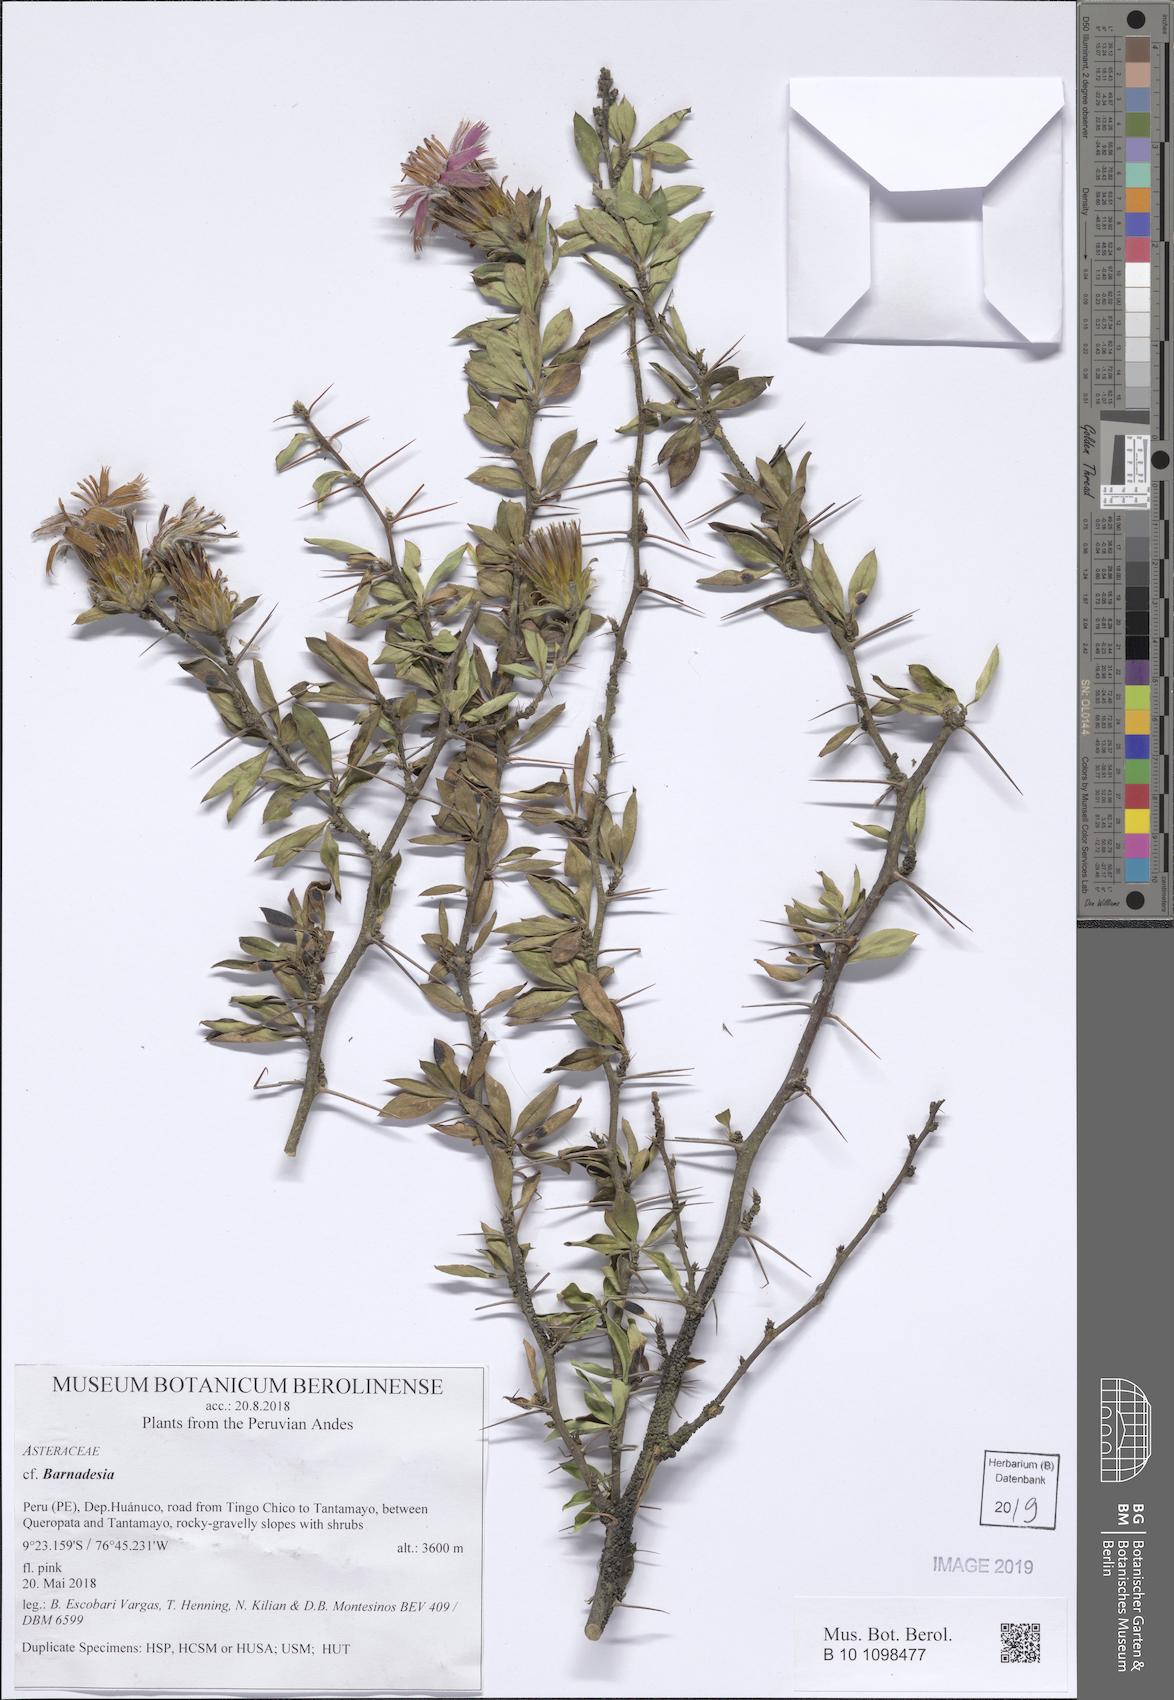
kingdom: Plantae
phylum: Tracheophyta
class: Magnoliopsida
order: Asterales
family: Asteraceae
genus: Barnadesia
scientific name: Barnadesia
